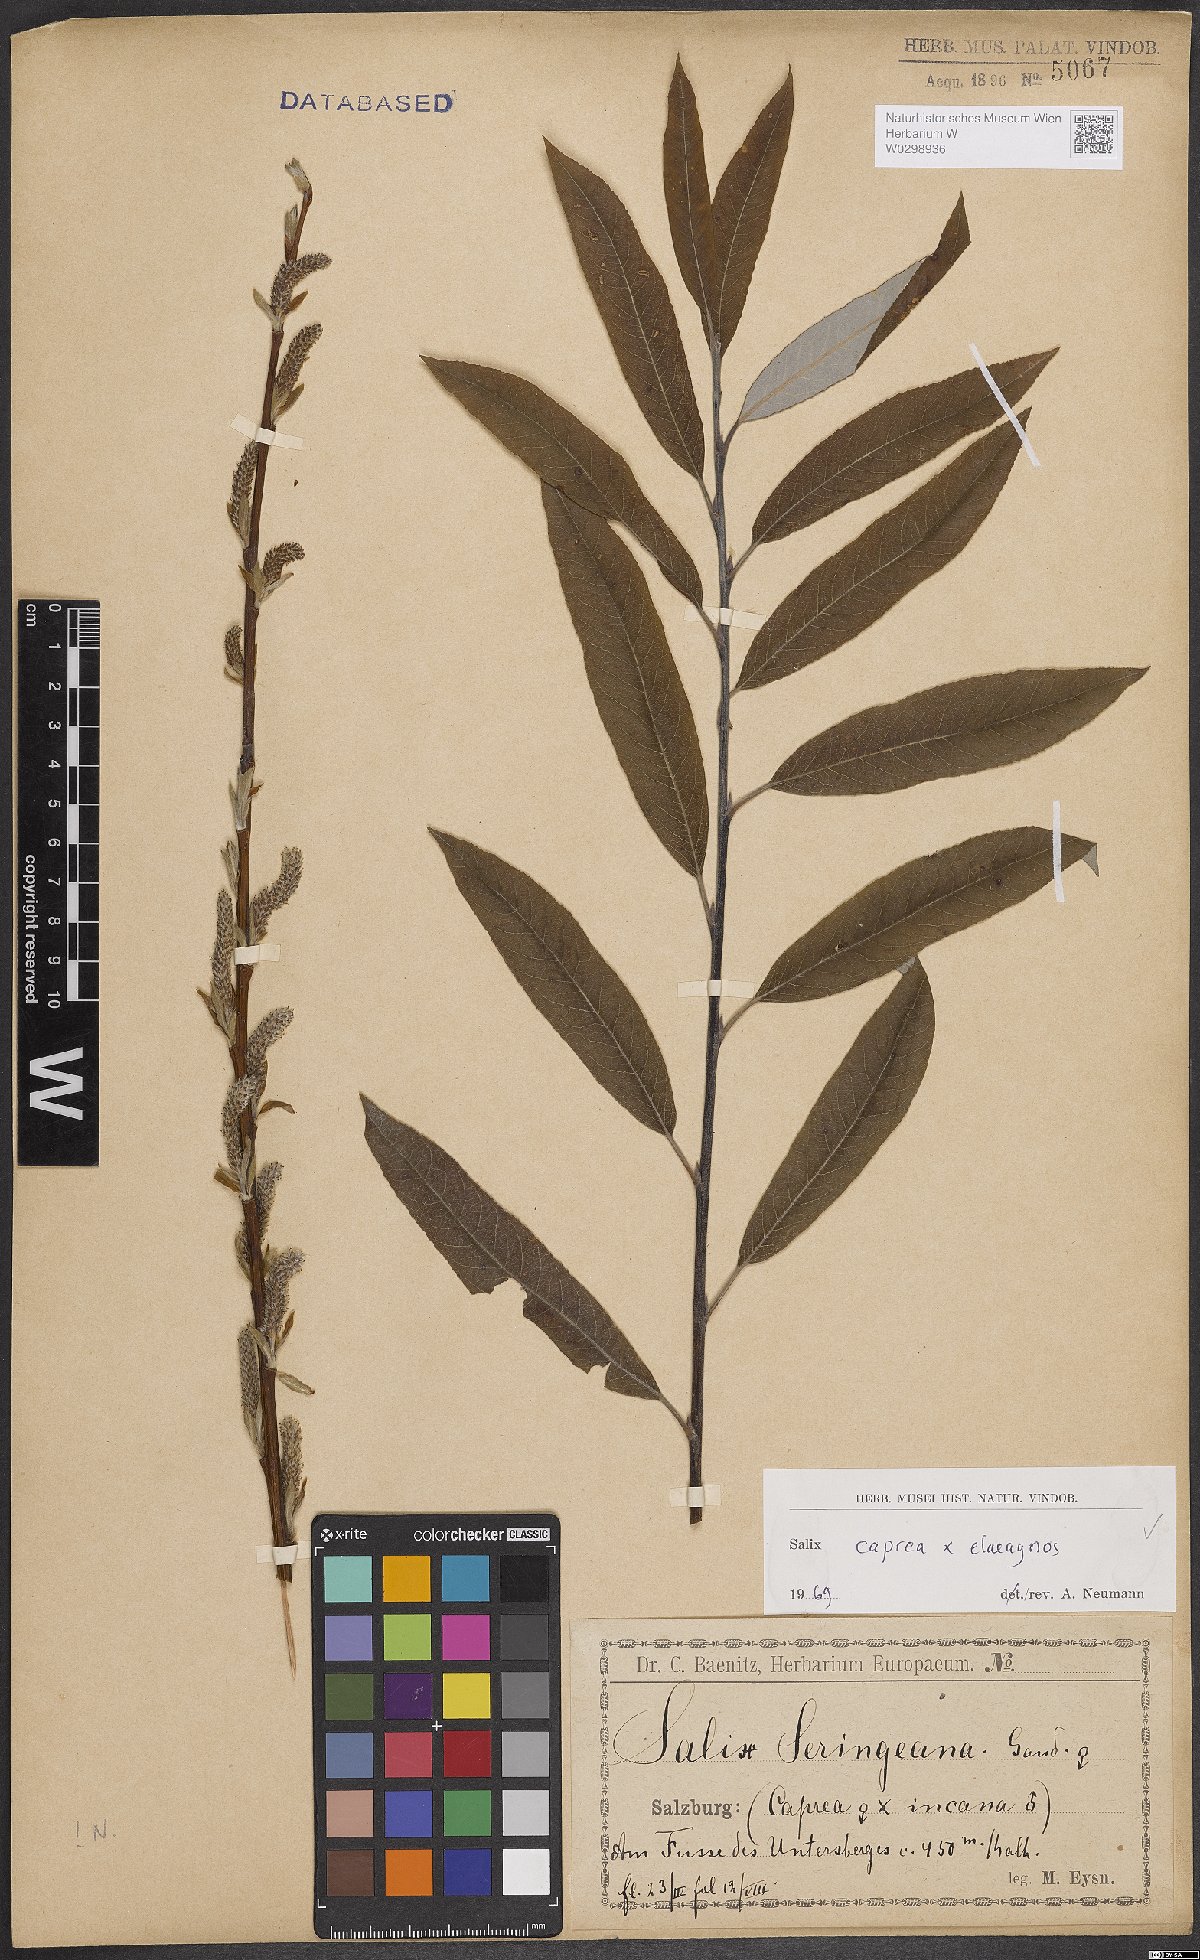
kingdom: Plantae
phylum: Tracheophyta
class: Magnoliopsida
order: Malpighiales
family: Salicaceae
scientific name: Salicaceae
